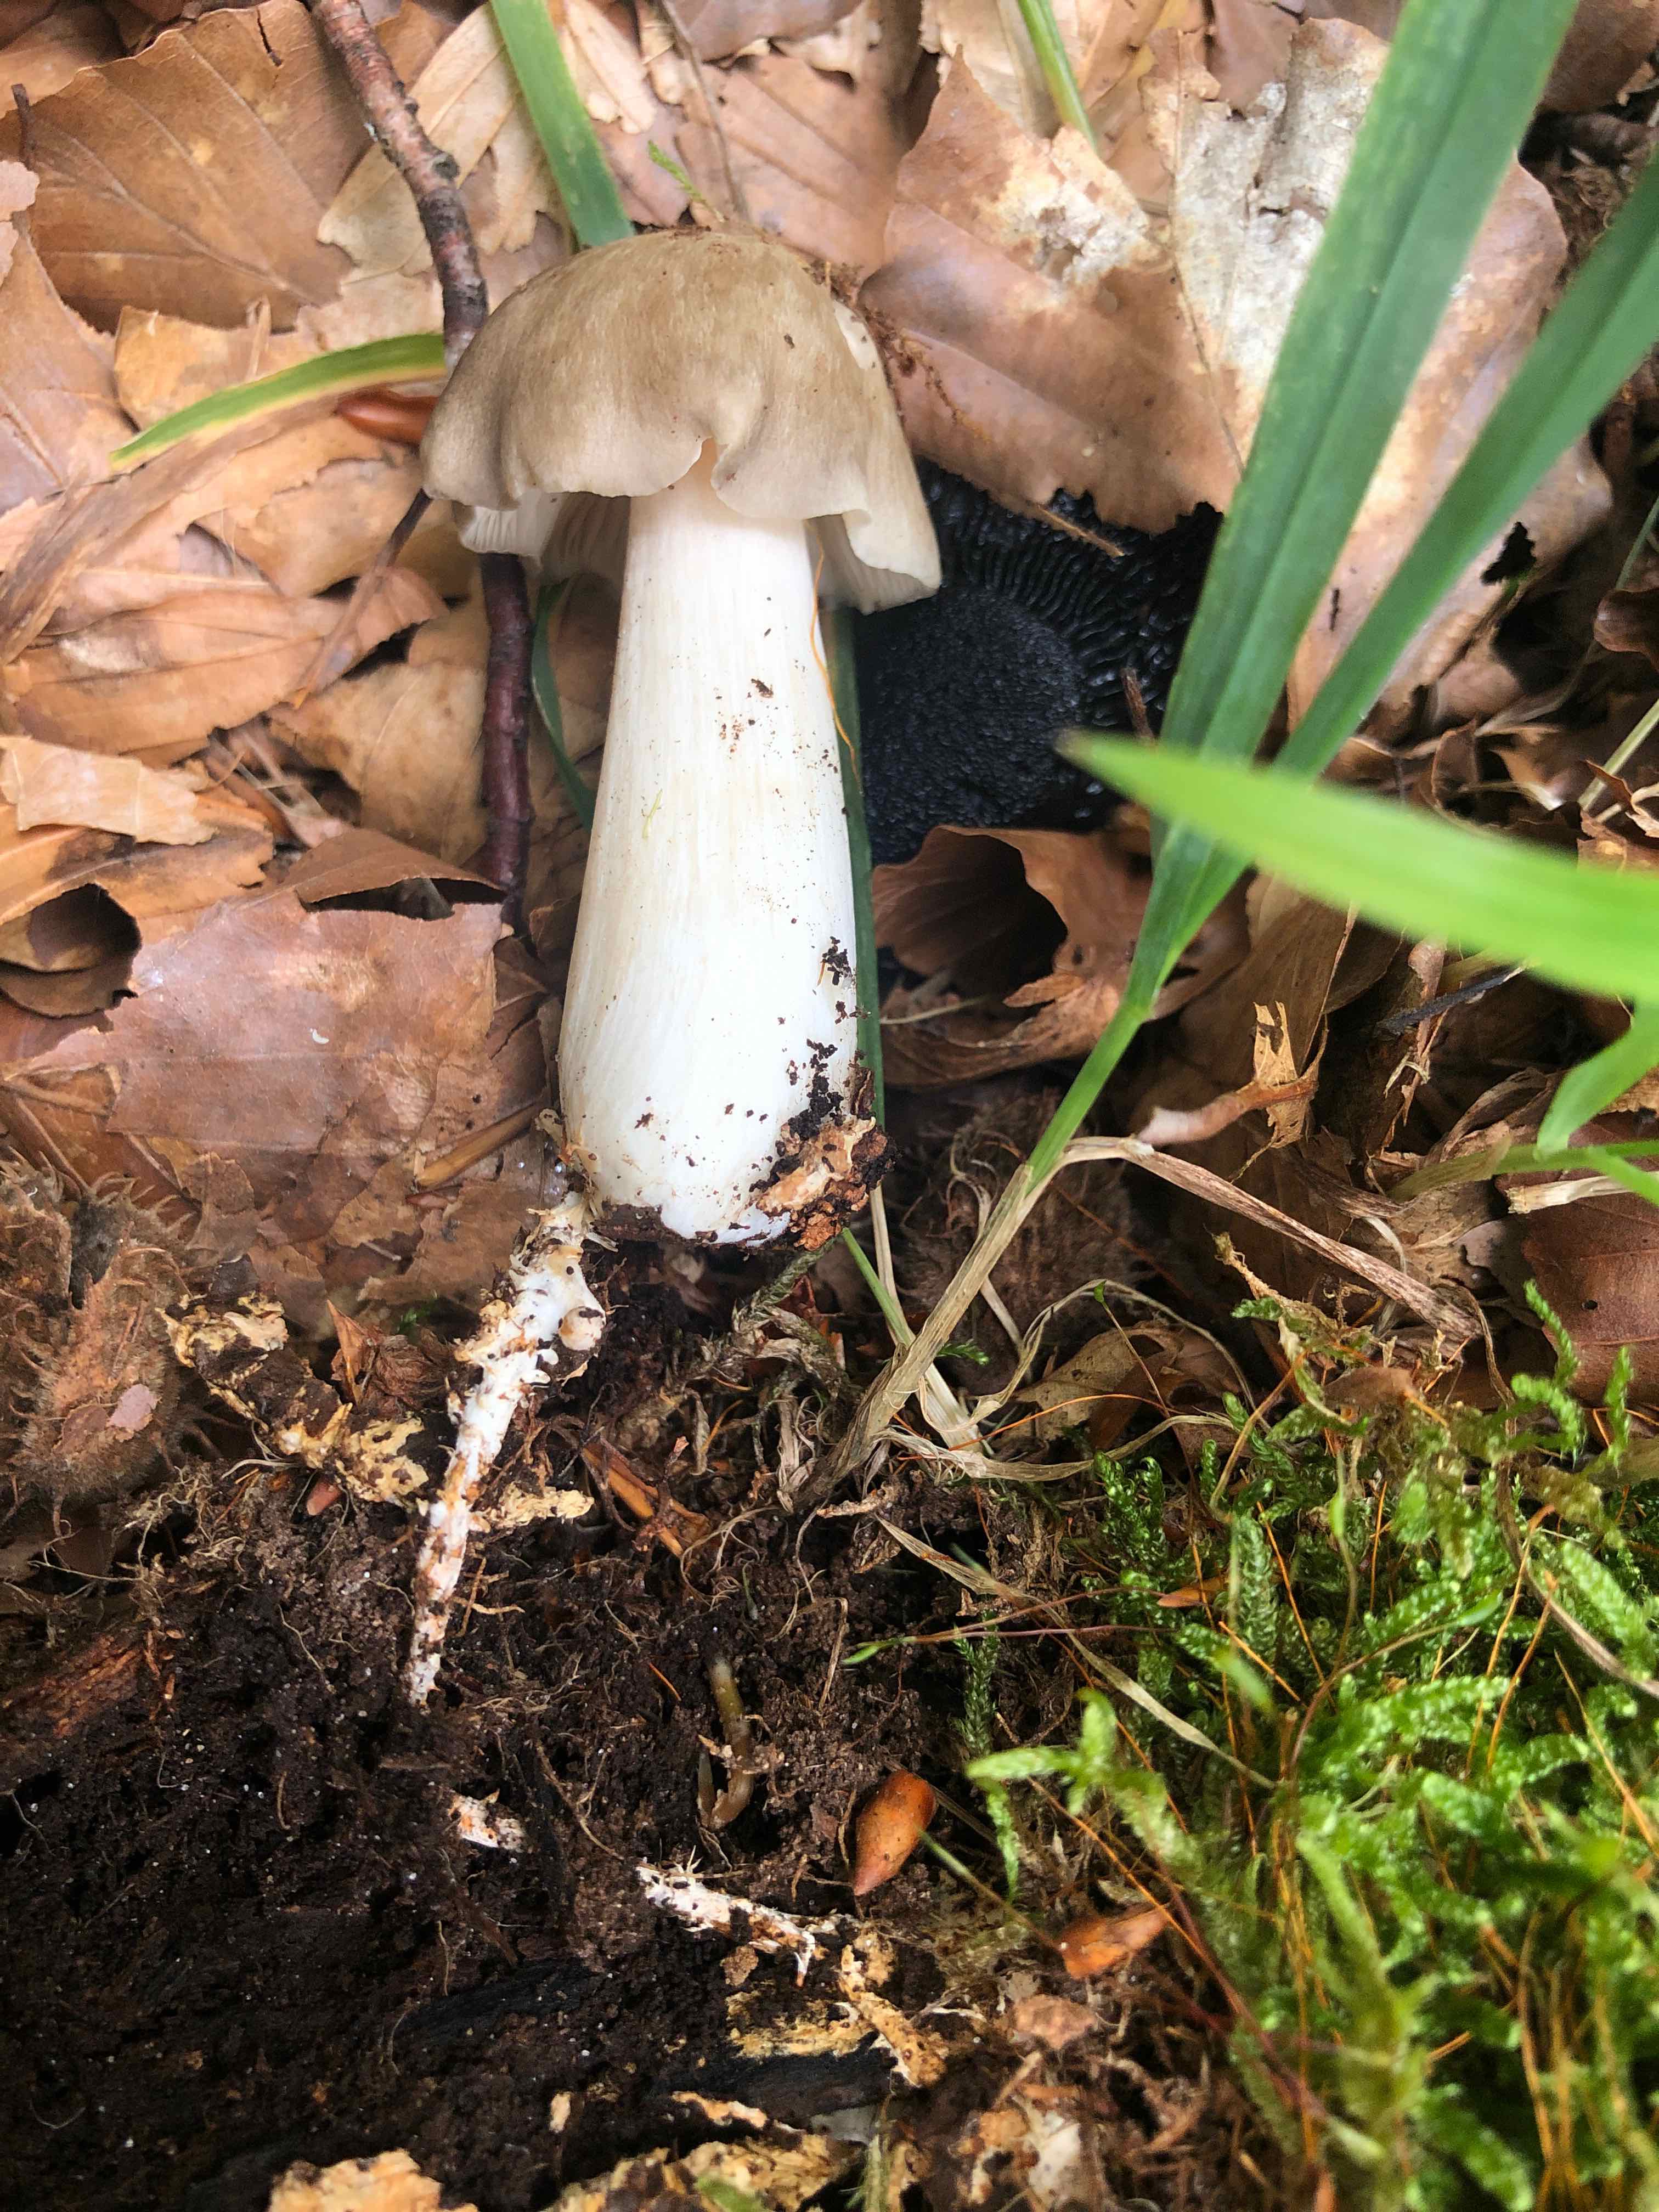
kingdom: Fungi
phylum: Basidiomycota
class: Agaricomycetes
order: Agaricales
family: Tricholomataceae
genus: Megacollybia
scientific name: Megacollybia platyphylla
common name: bredbladet væbnerhat
